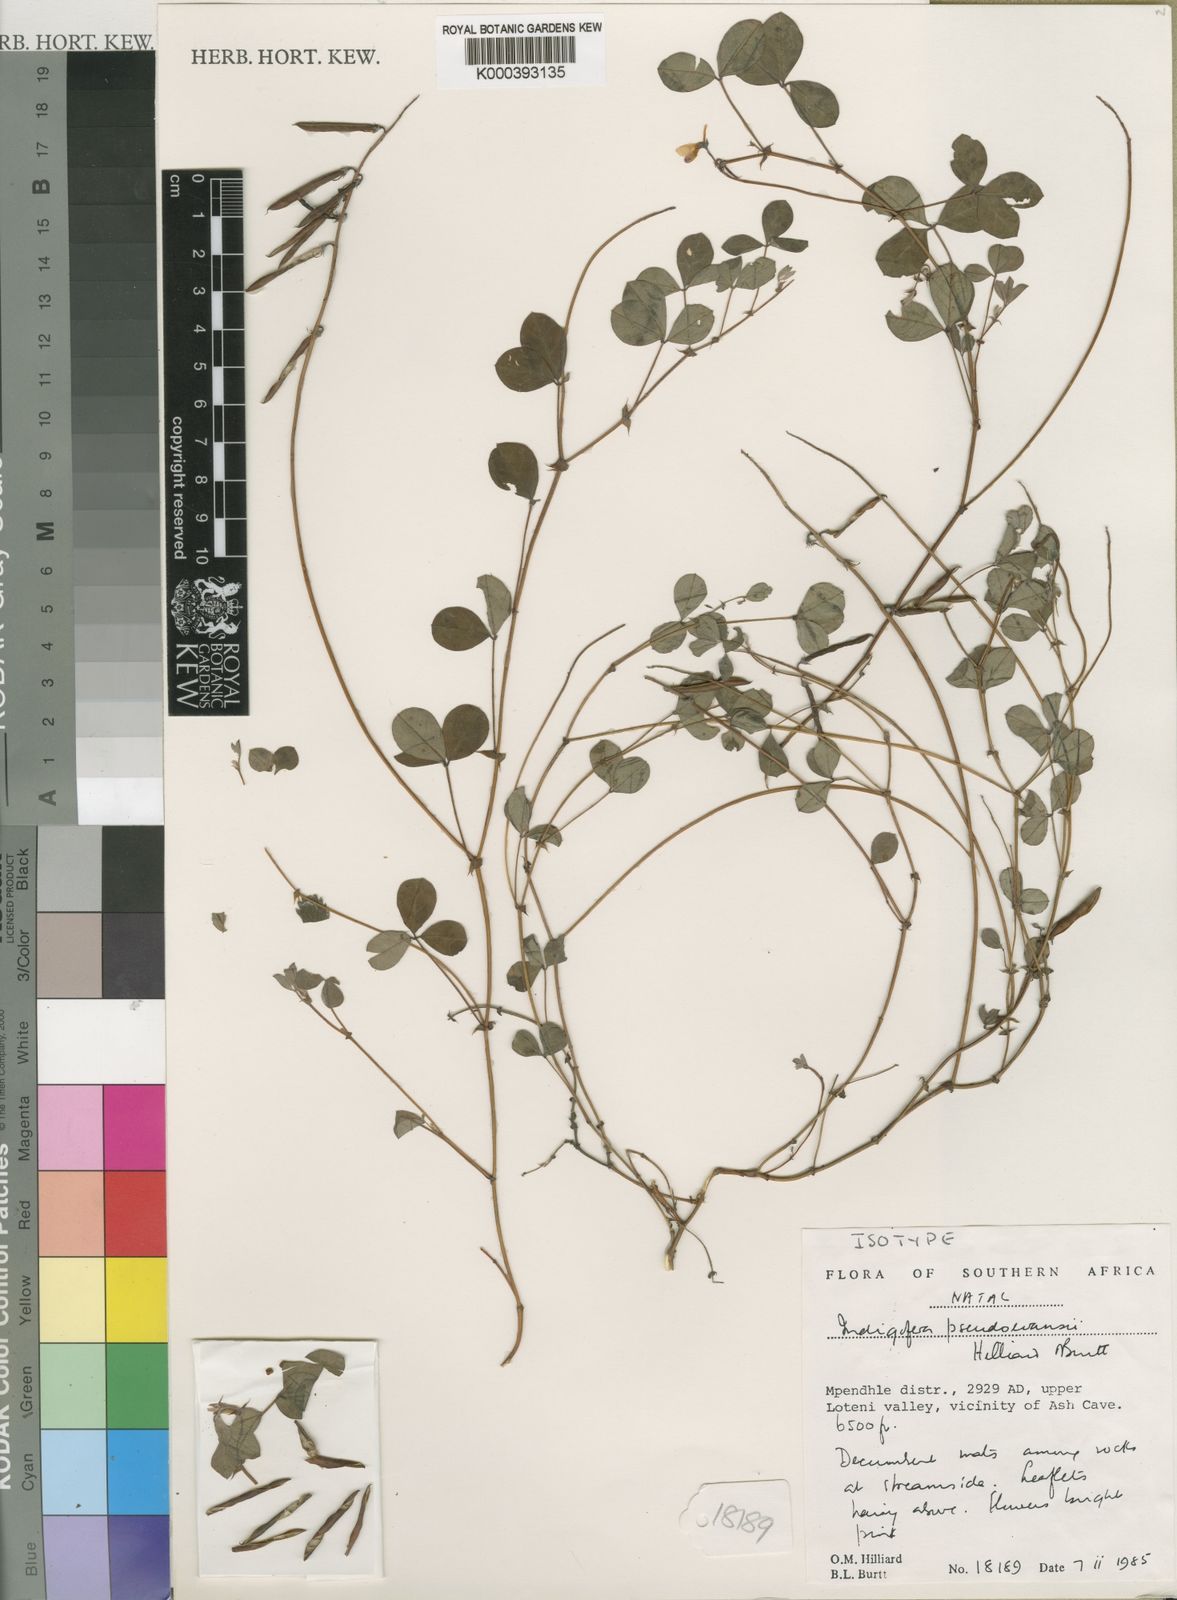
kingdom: Plantae
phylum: Tracheophyta
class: Magnoliopsida
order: Fabales
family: Fabaceae
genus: Indigofera
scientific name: Indigofera pseudoevansii
